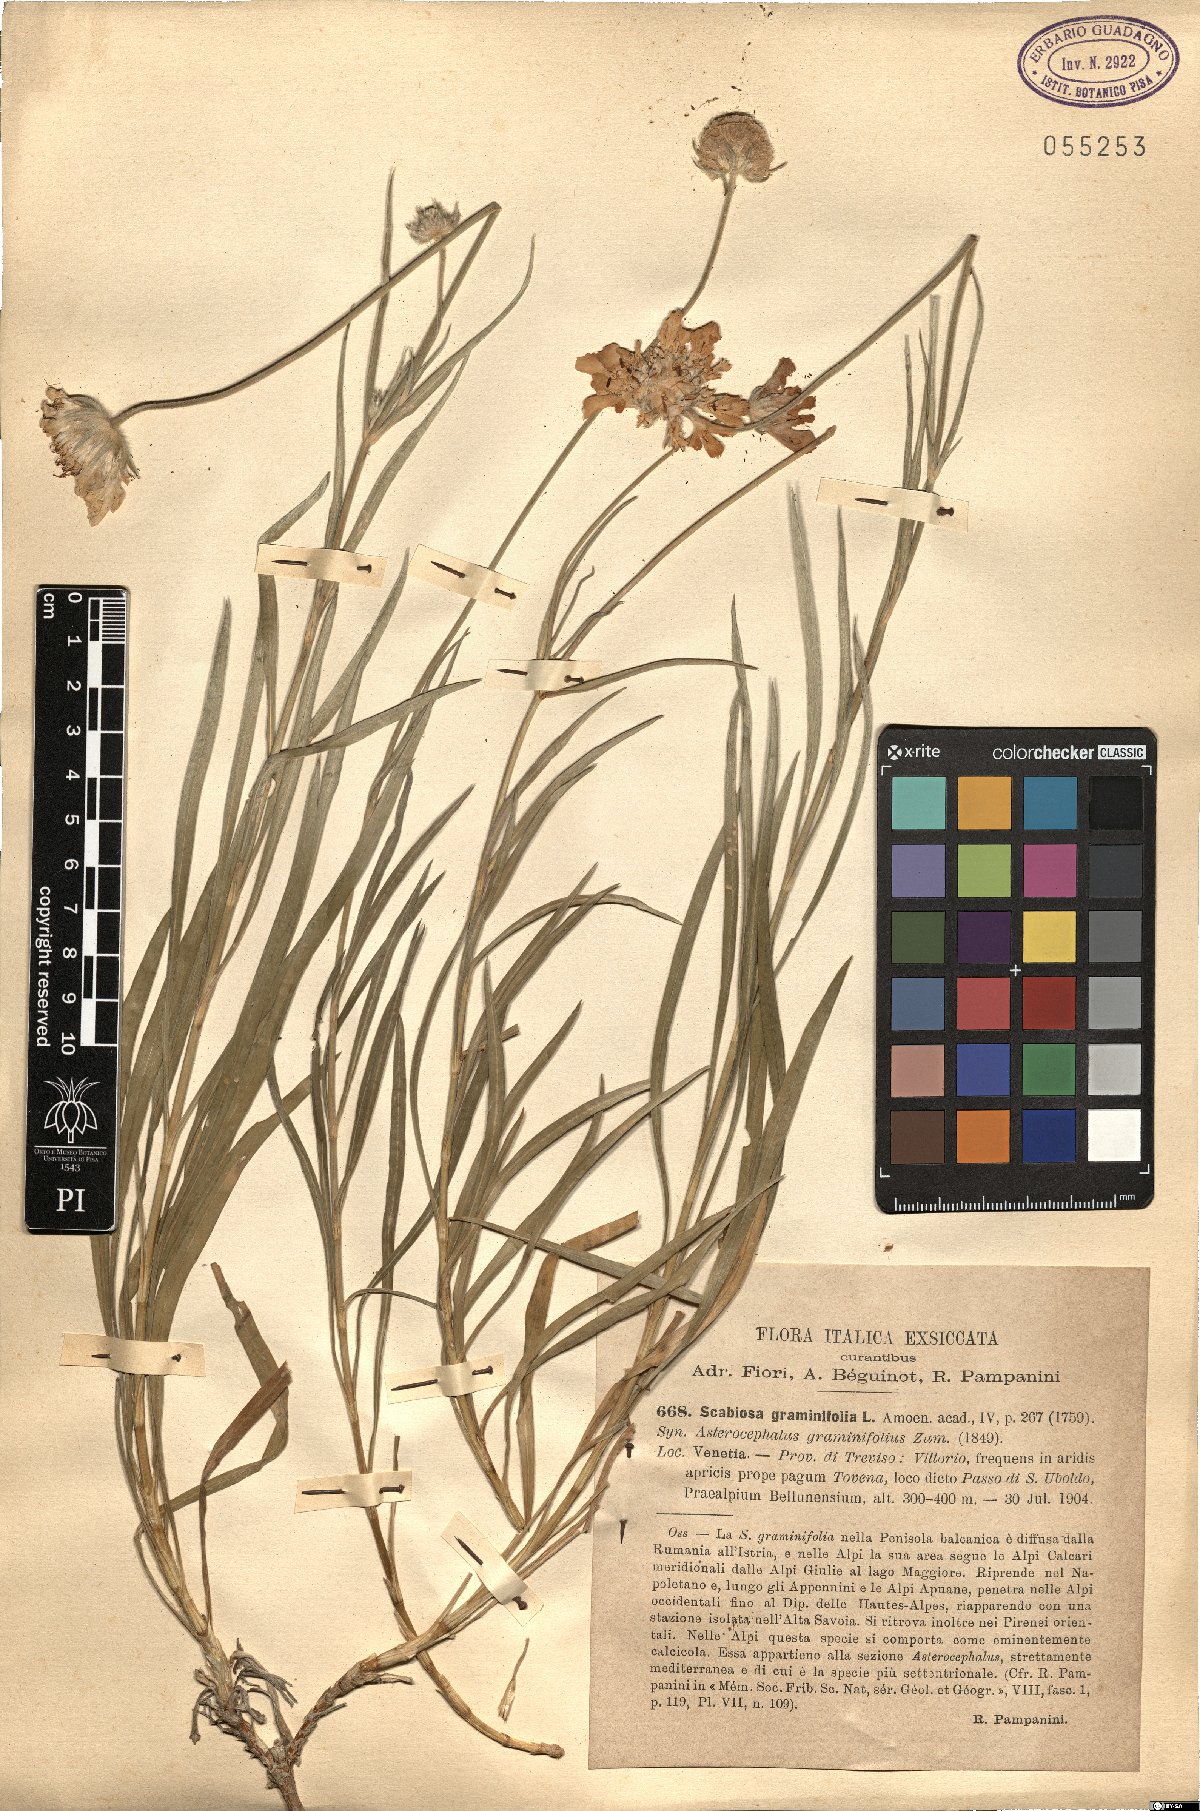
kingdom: Plantae
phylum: Tracheophyta
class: Magnoliopsida
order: Dipsacales
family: Caprifoliaceae
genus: Lomelosia
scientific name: Lomelosia graminifolia
